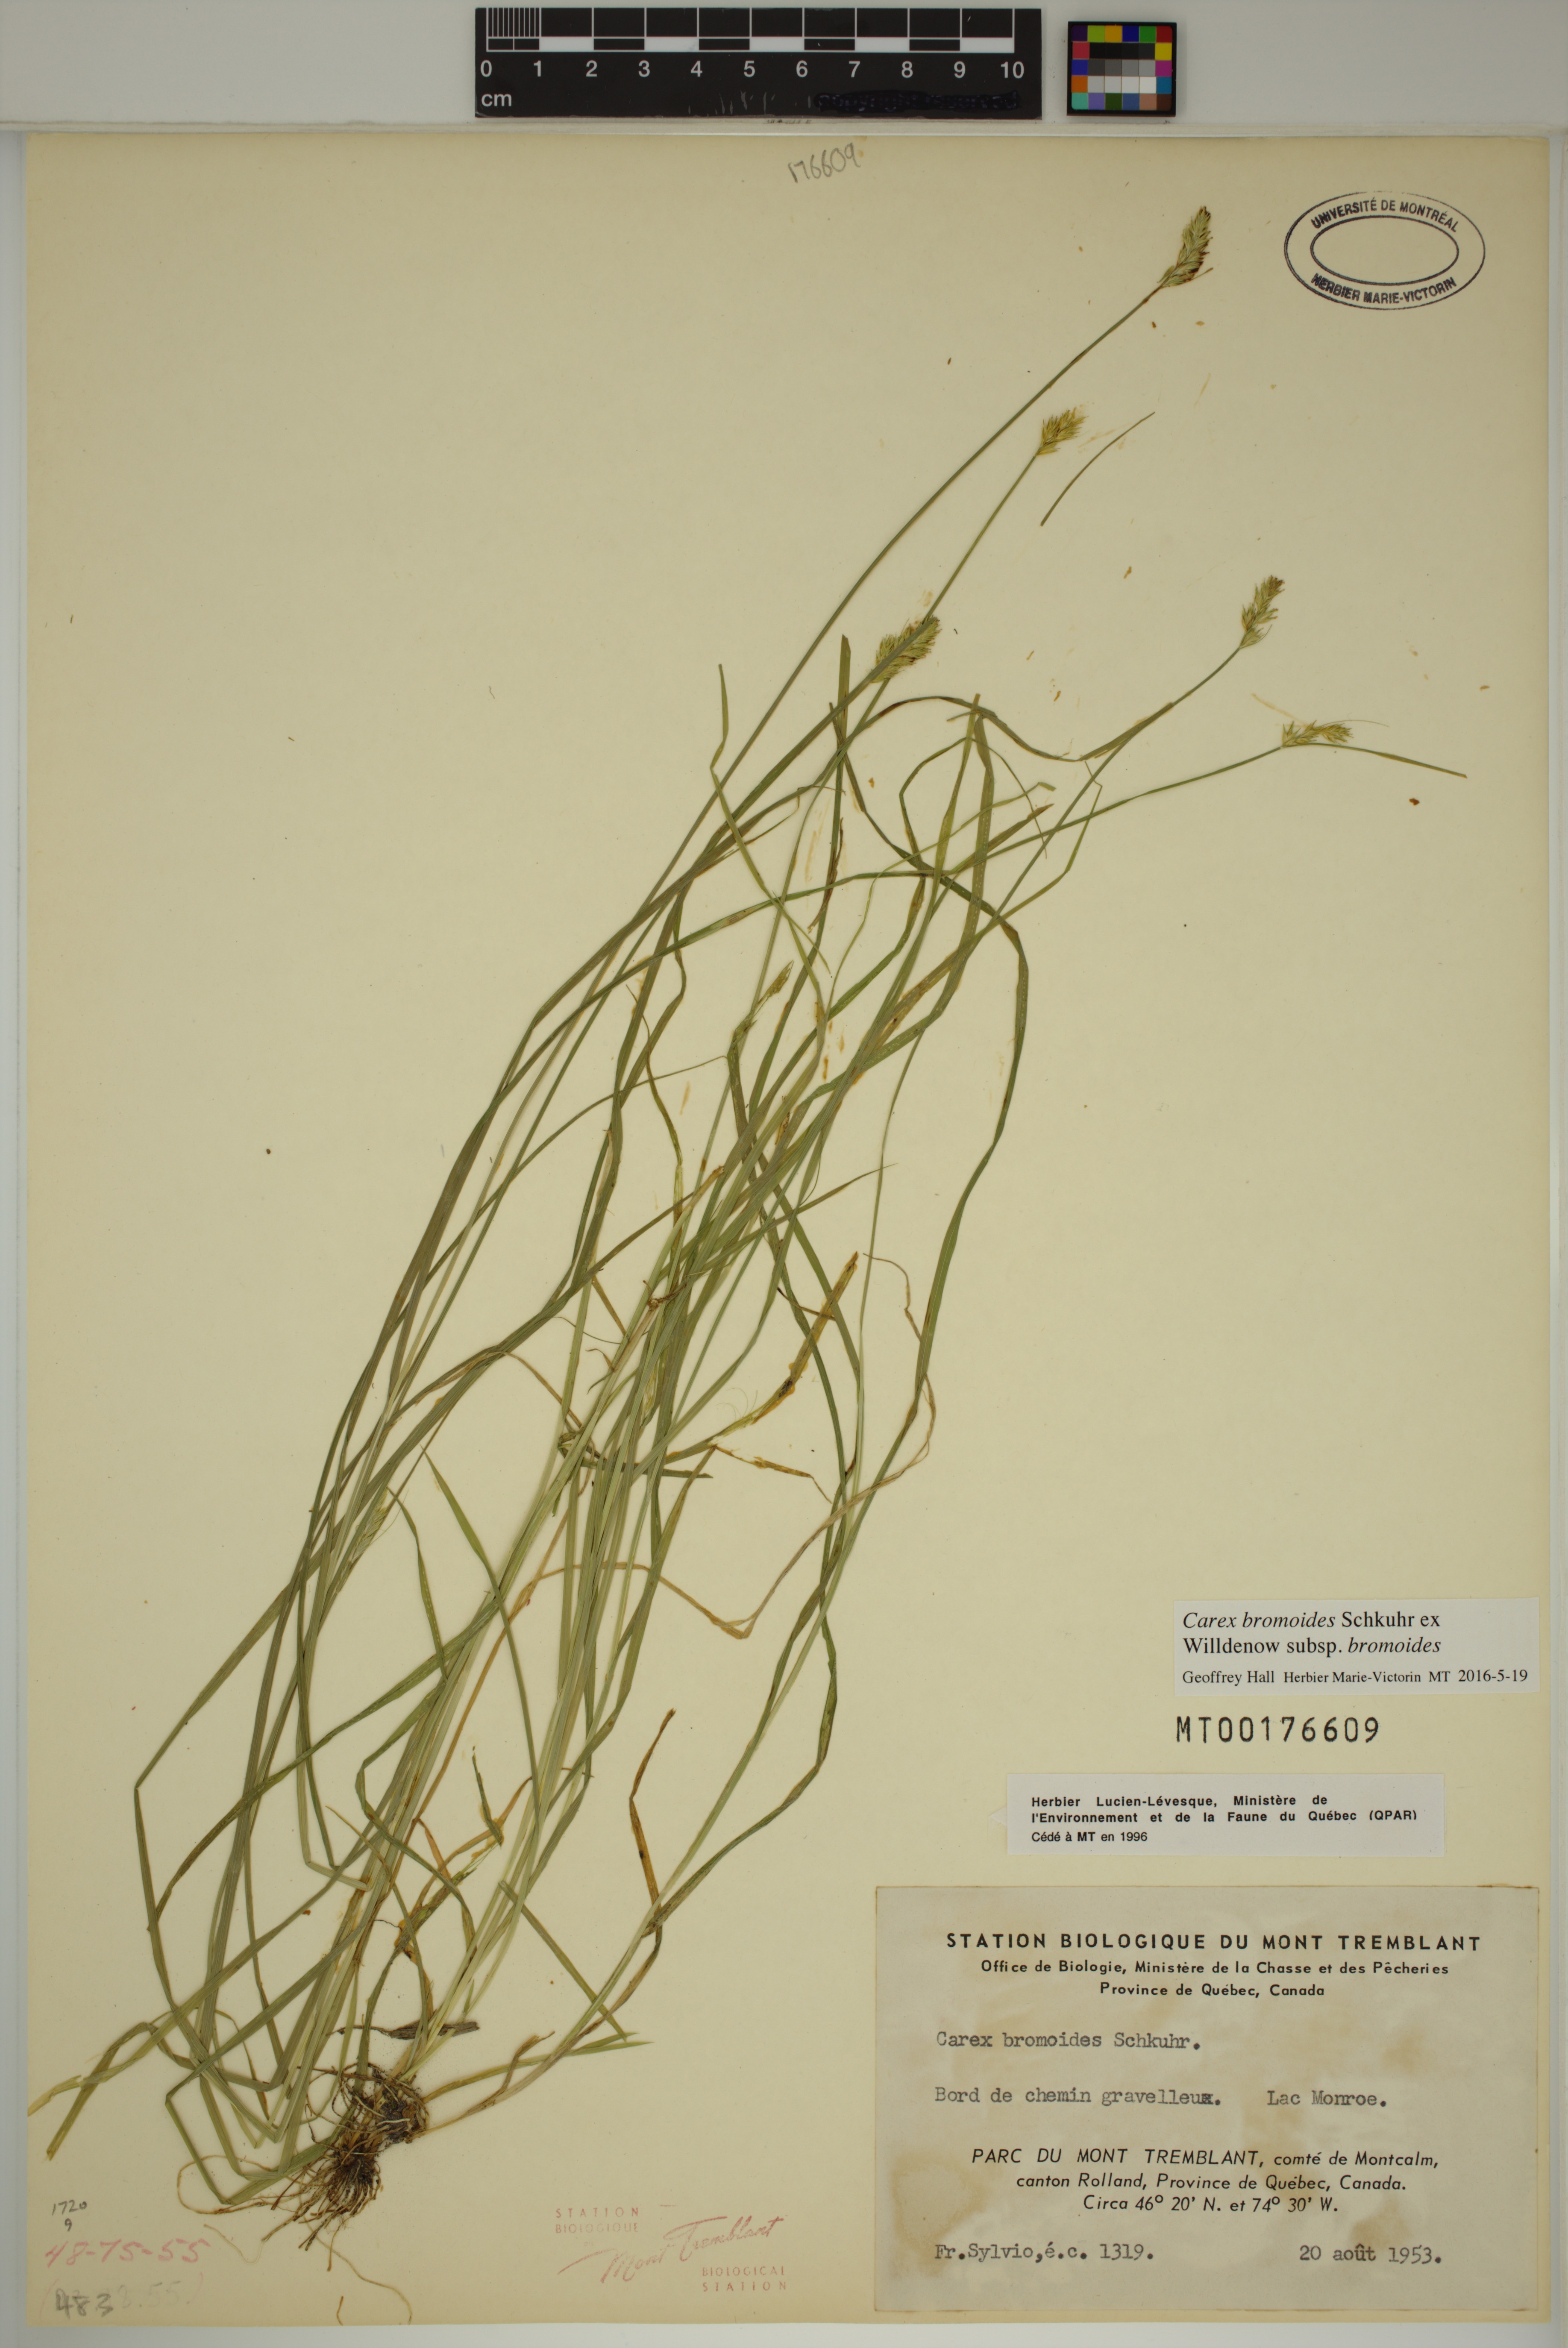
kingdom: Plantae
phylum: Tracheophyta
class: Liliopsida
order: Poales
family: Cyperaceae
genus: Carex
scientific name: Carex bromoides
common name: Brome hummock sedge
